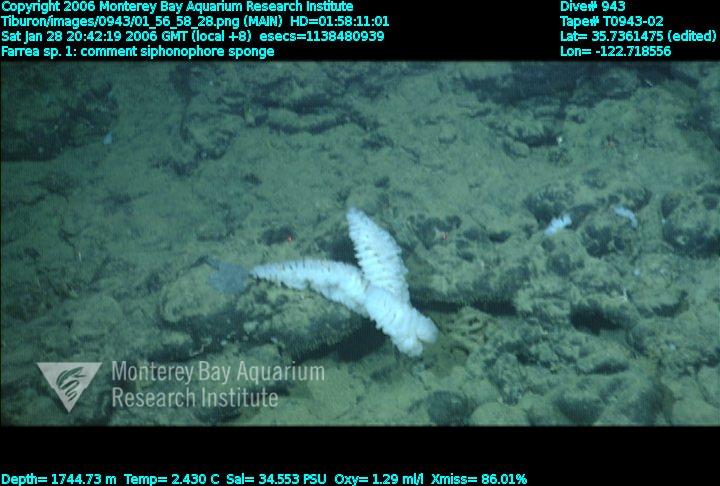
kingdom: Animalia
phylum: Porifera
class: Hexactinellida
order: Sceptrulophora
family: Farreidae
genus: Farrea
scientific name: Farrea truncata
